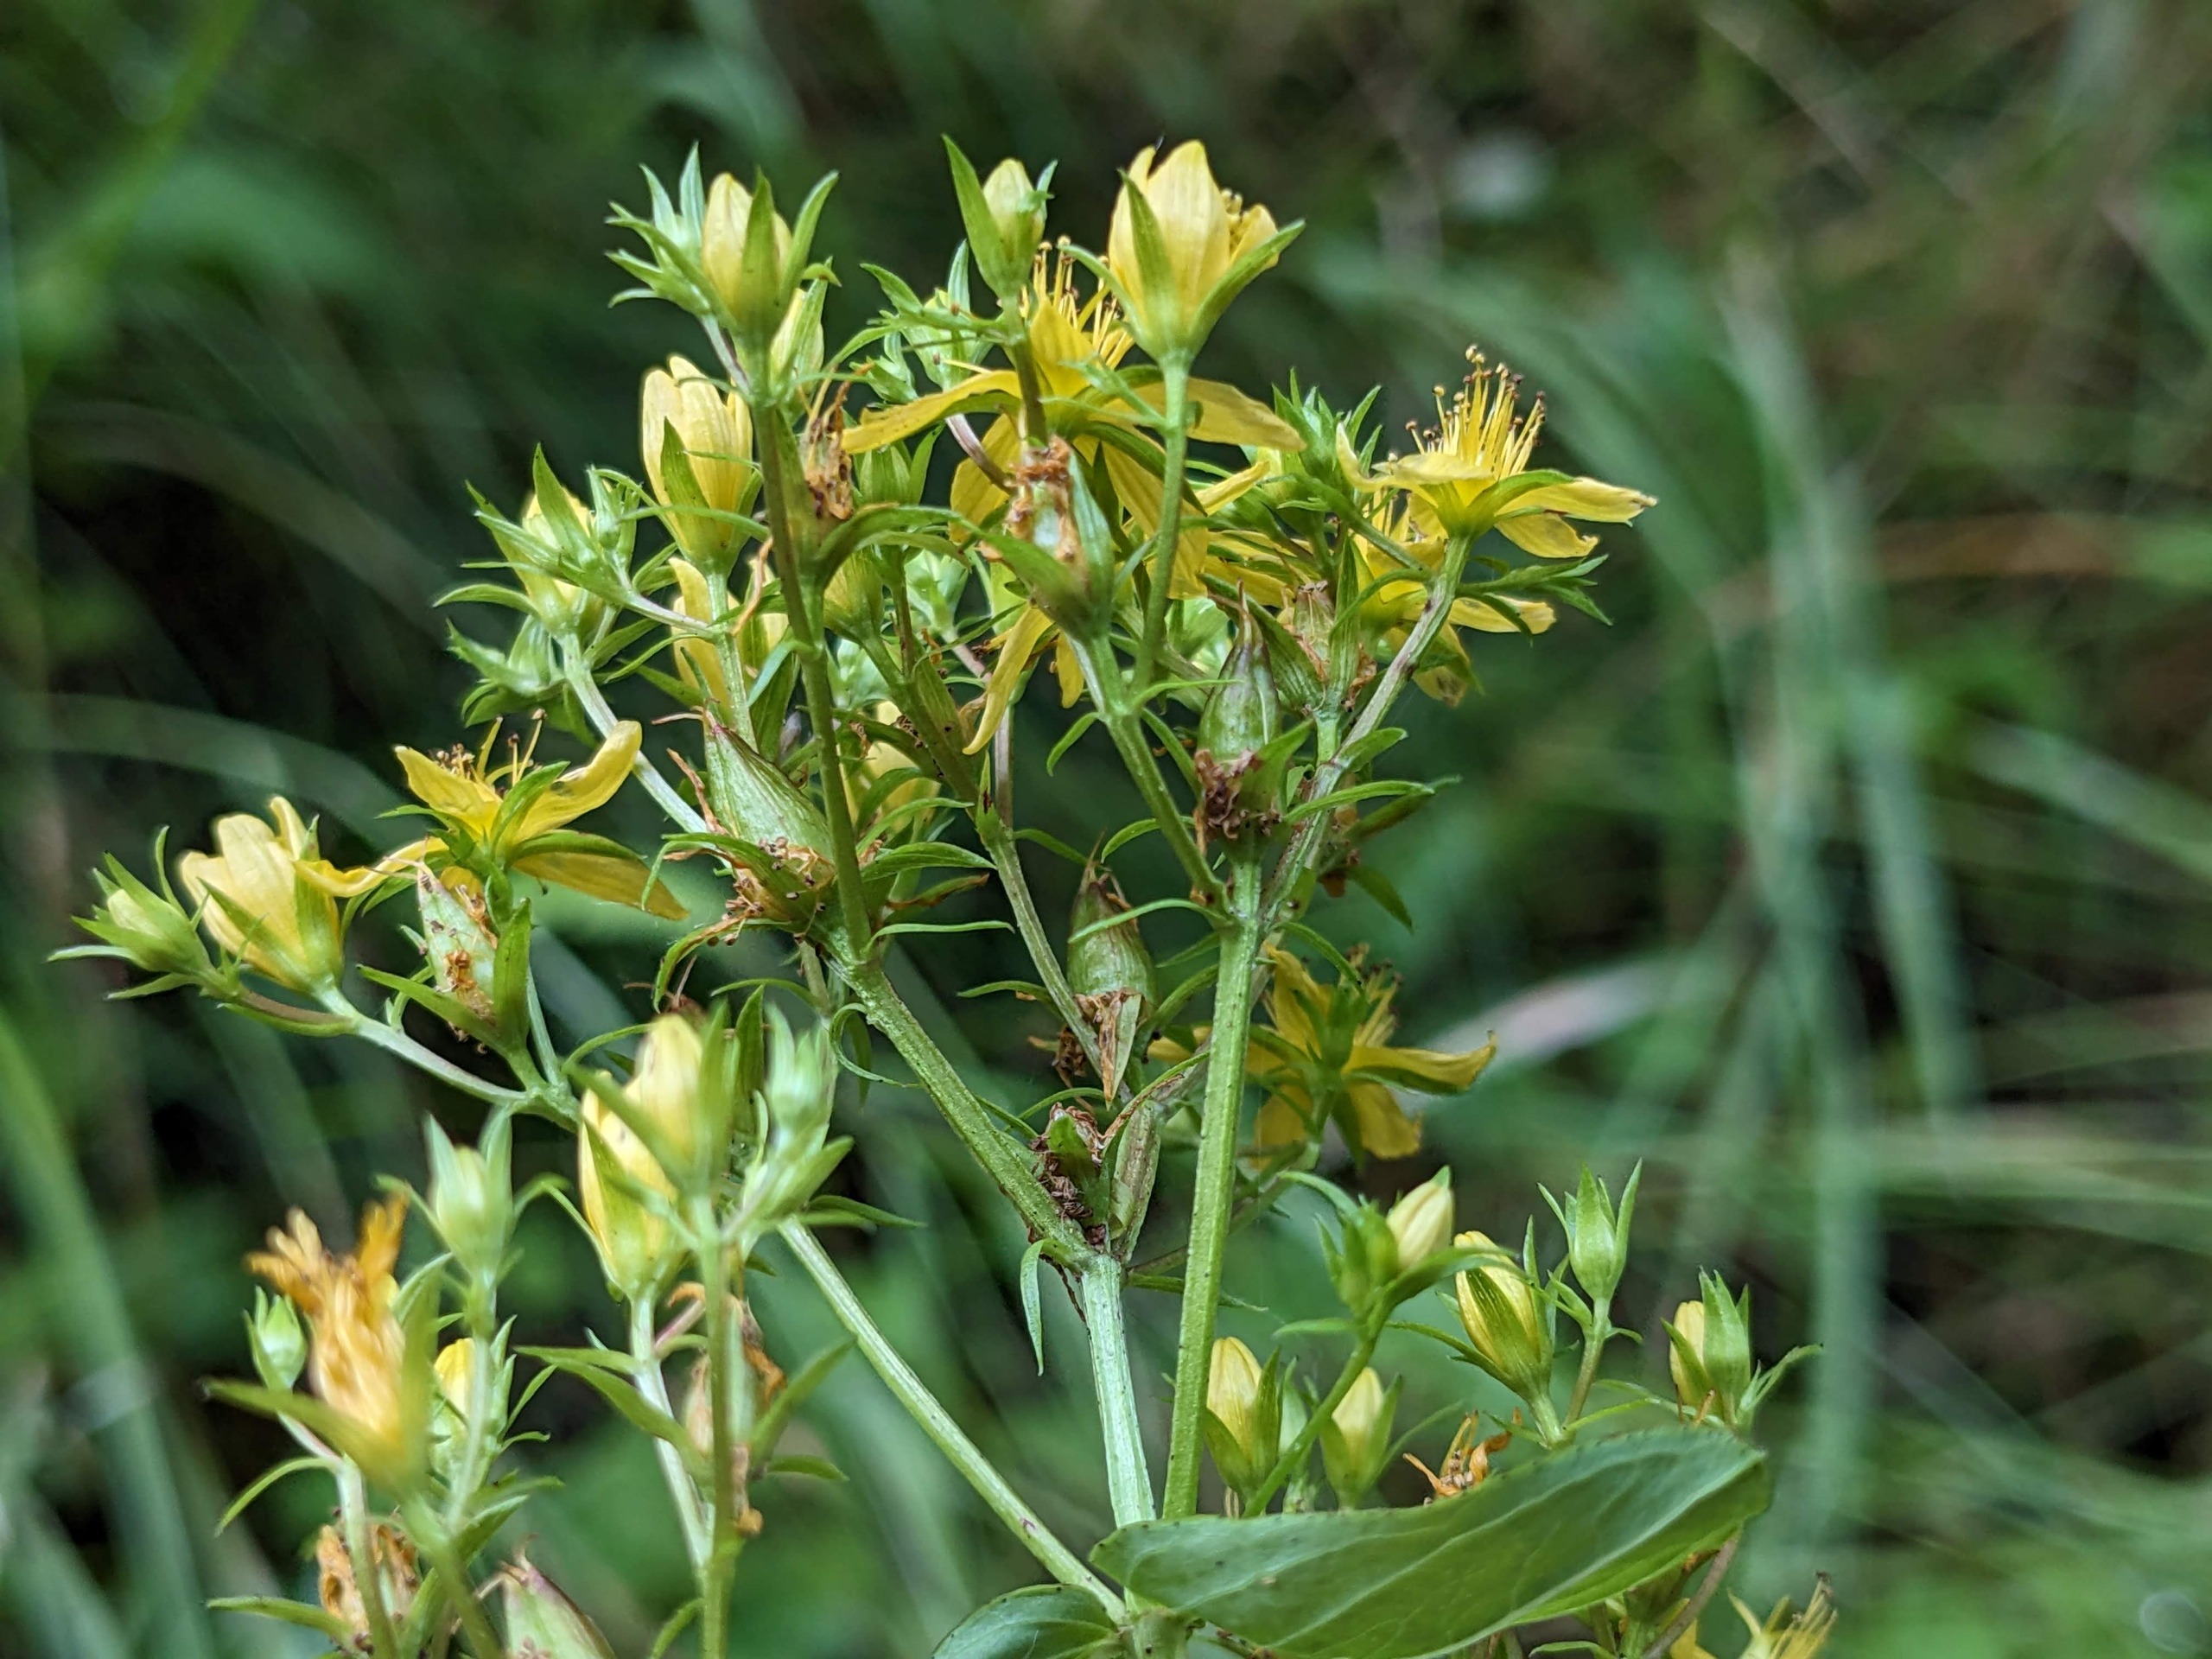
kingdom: Plantae
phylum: Tracheophyta
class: Magnoliopsida
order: Malpighiales
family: Hypericaceae
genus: Hypericum
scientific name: Hypericum tetrapterum
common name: Vinget perikon
